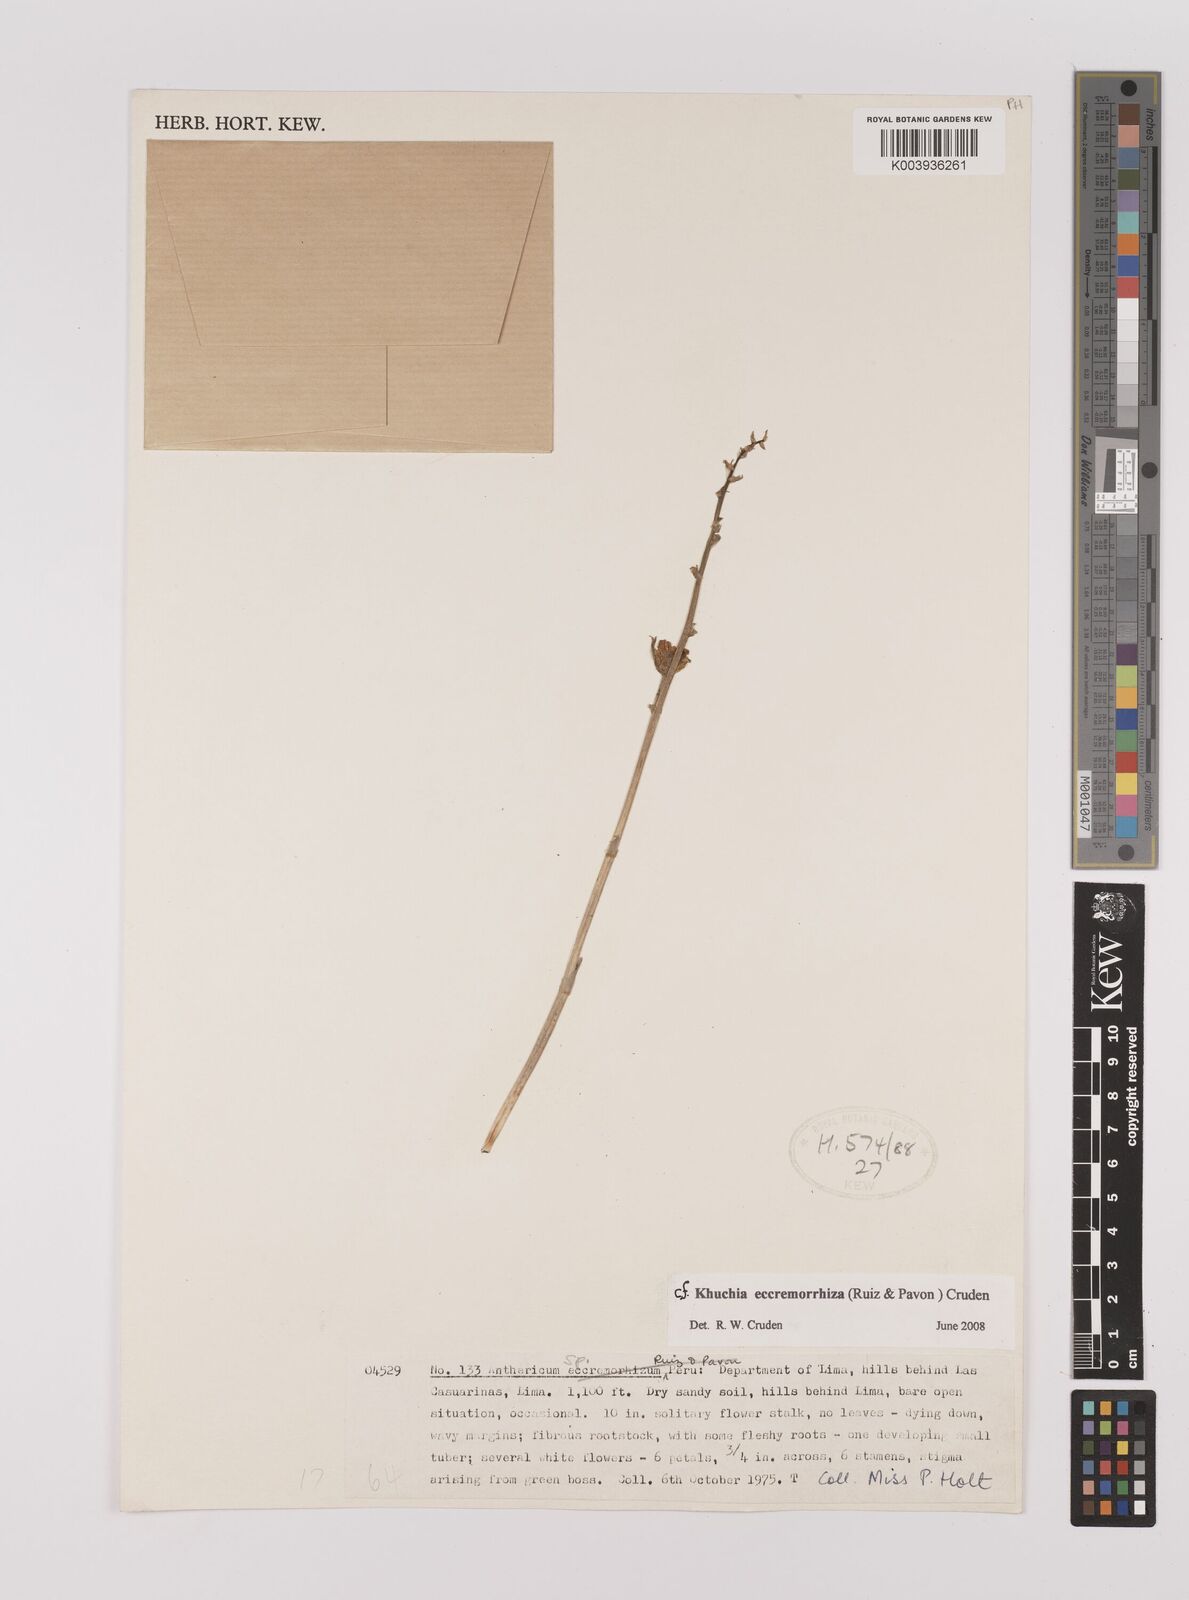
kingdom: Plantae
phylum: Tracheophyta
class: Liliopsida
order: Asparagales
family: Asparagaceae
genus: Echeandia
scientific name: Echeandia
